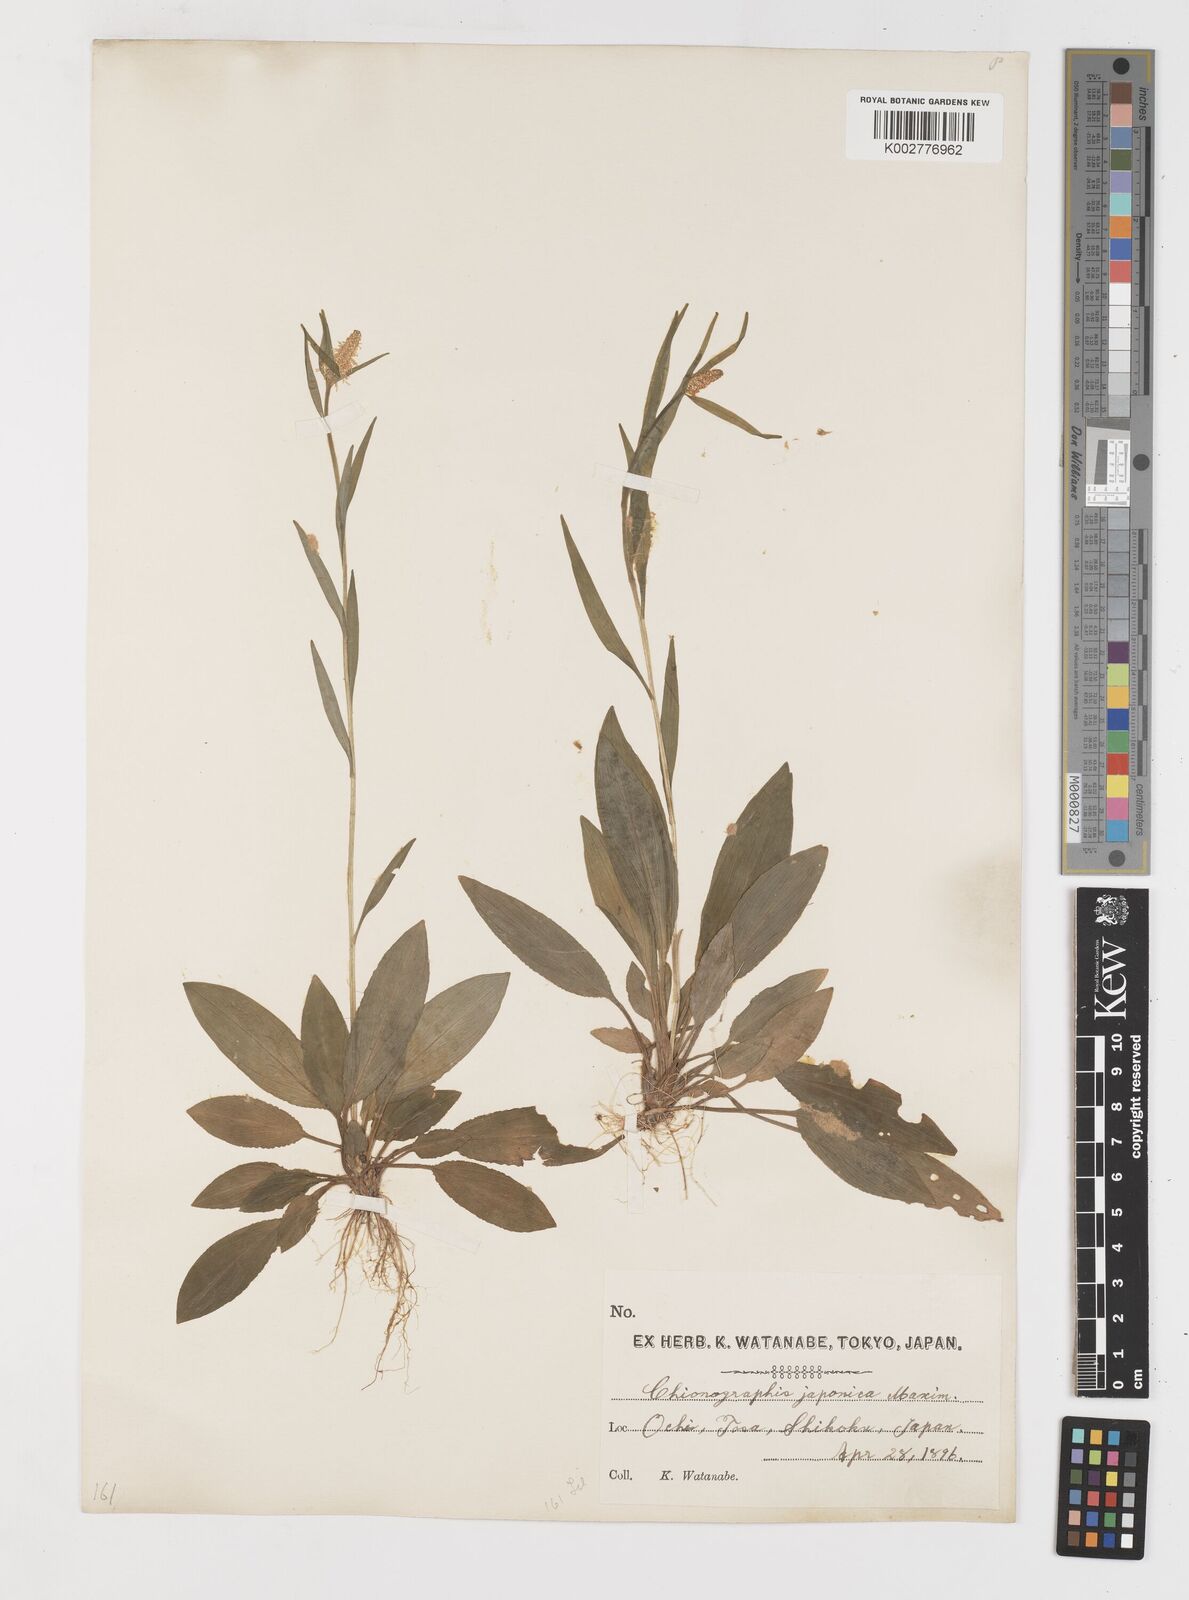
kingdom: Plantae
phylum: Tracheophyta
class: Liliopsida
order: Liliales
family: Melanthiaceae
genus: Chamaelirium
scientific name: Chamaelirium japonicum
